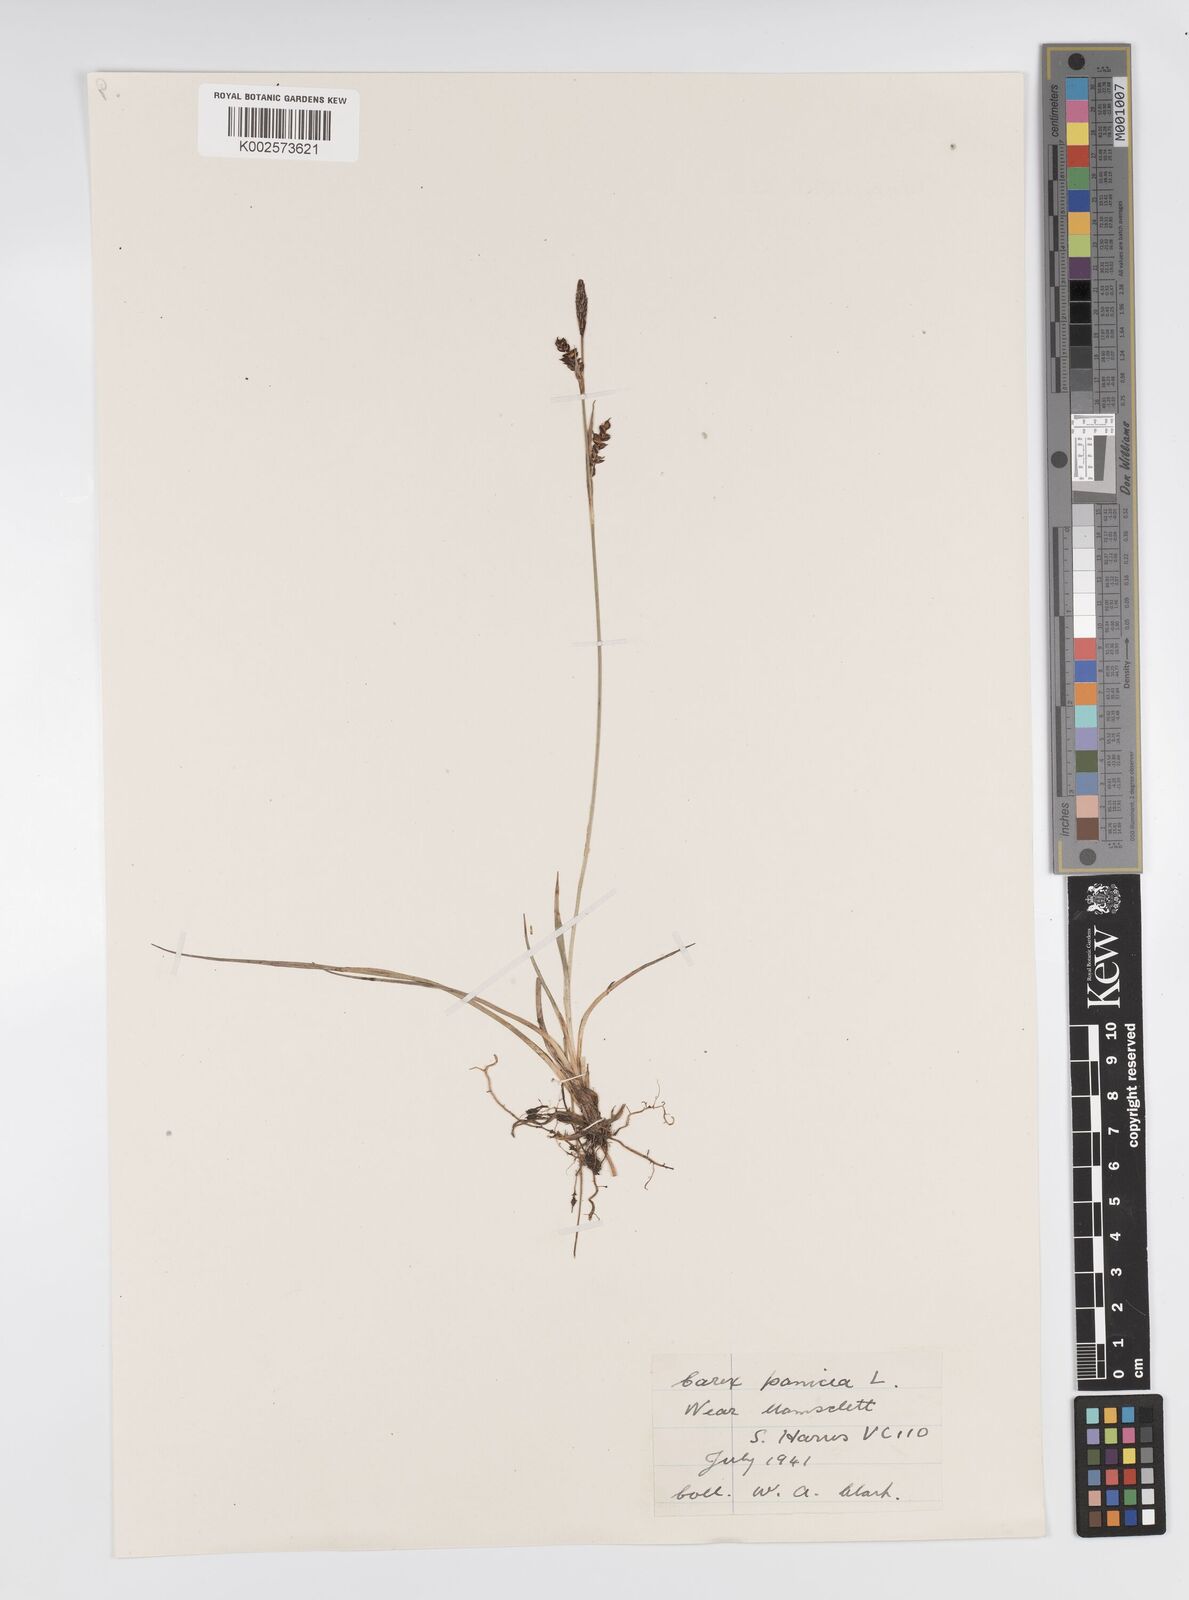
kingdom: Plantae
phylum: Tracheophyta
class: Liliopsida
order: Poales
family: Cyperaceae
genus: Carex
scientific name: Carex panicea
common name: Carnation sedge
